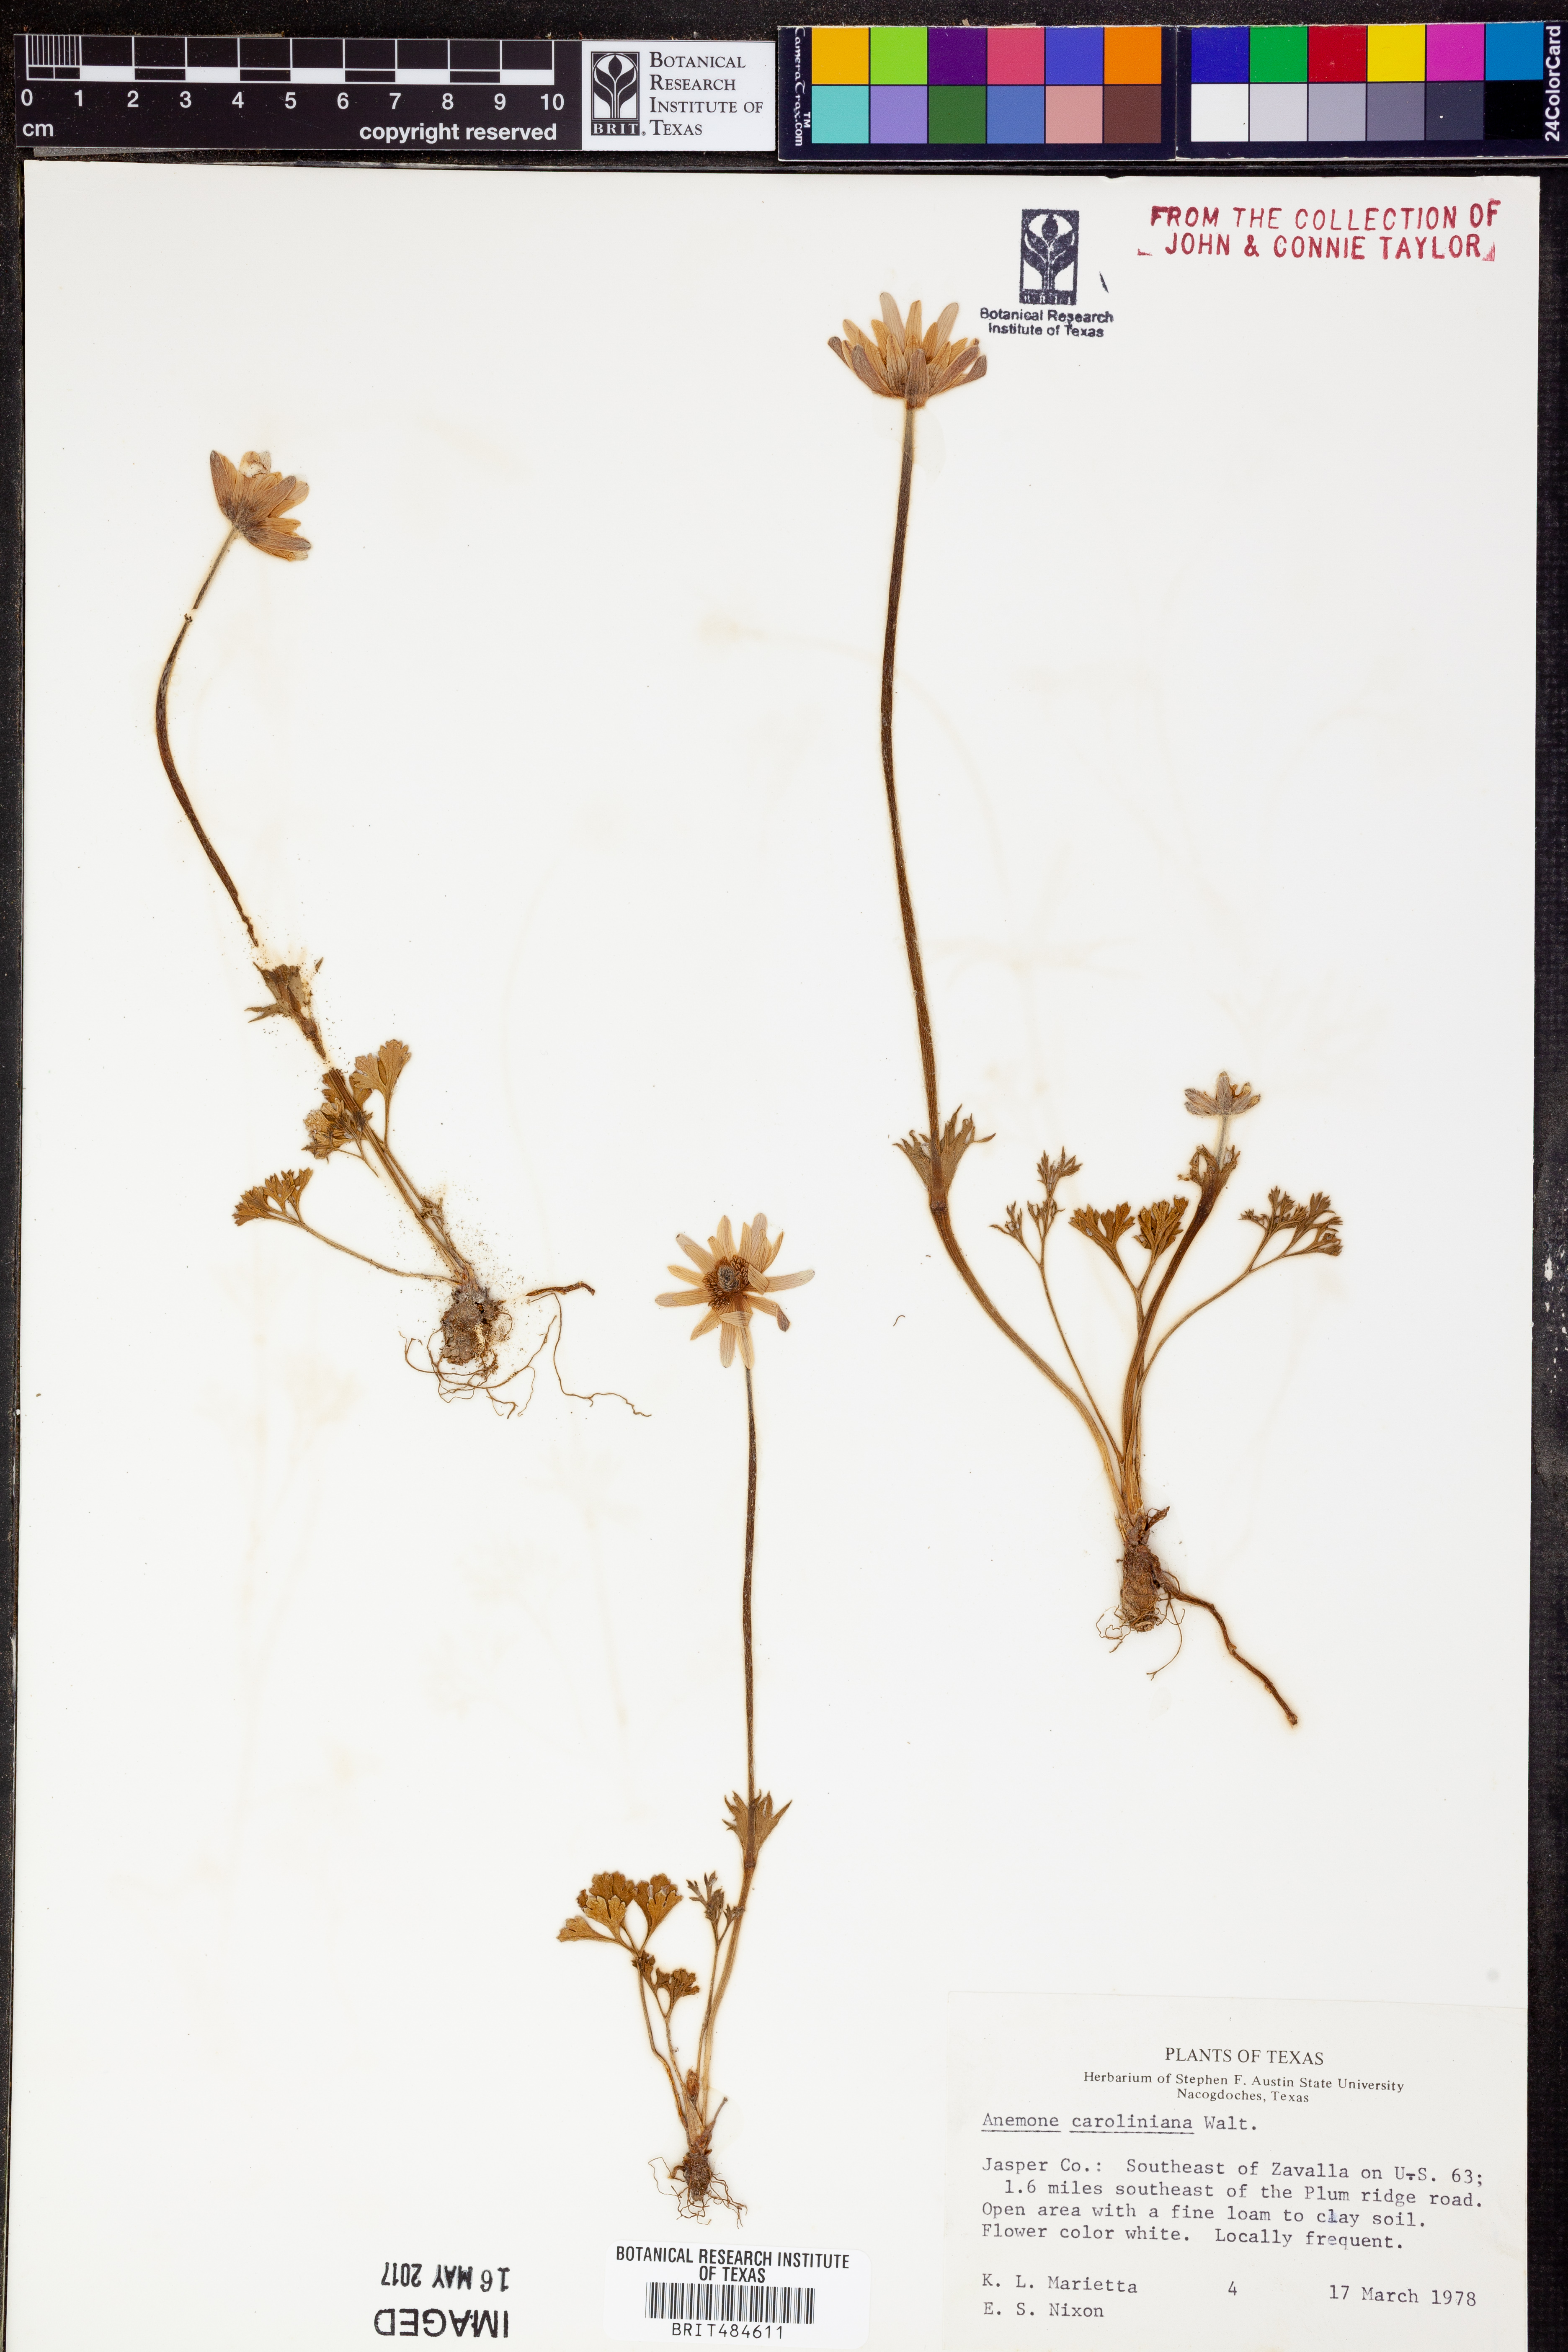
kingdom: Plantae
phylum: Tracheophyta
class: Magnoliopsida
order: Ranunculales
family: Ranunculaceae
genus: Anemone
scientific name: Anemone caroliniana
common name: Carolina anemone
